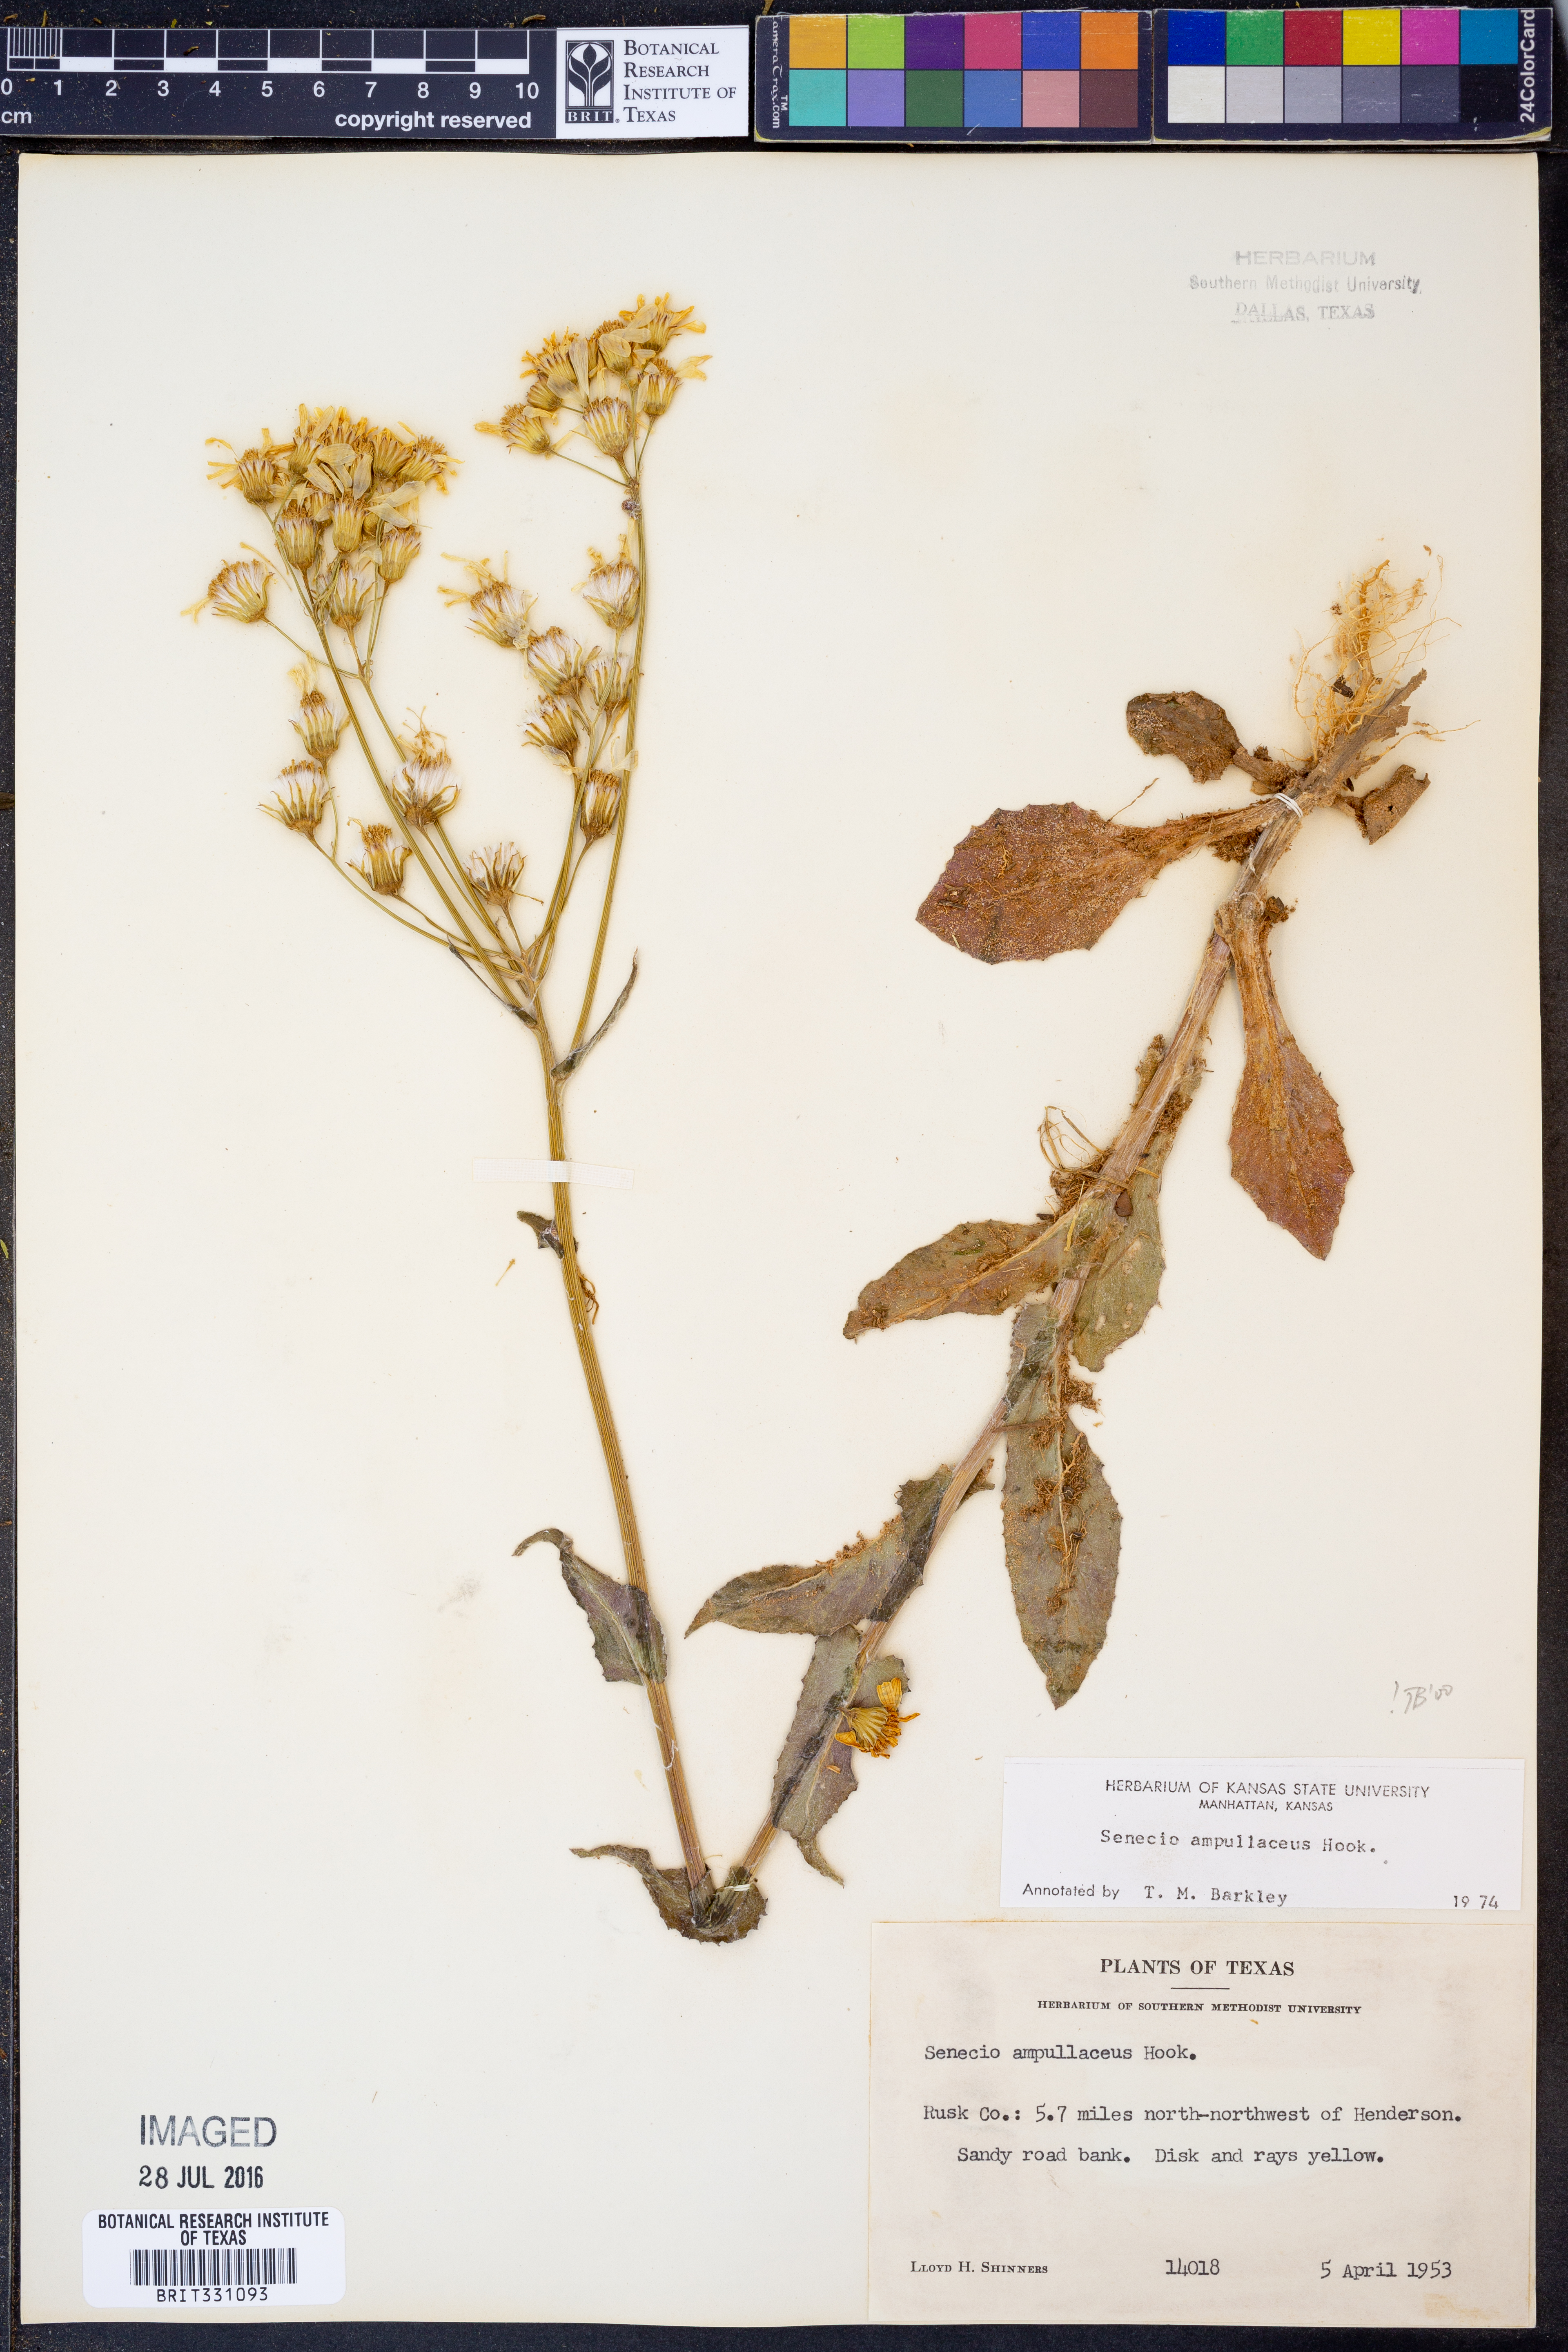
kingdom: Plantae
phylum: Tracheophyta
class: Magnoliopsida
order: Asterales
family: Asteraceae
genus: Senecio
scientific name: Senecio ampullaceus
